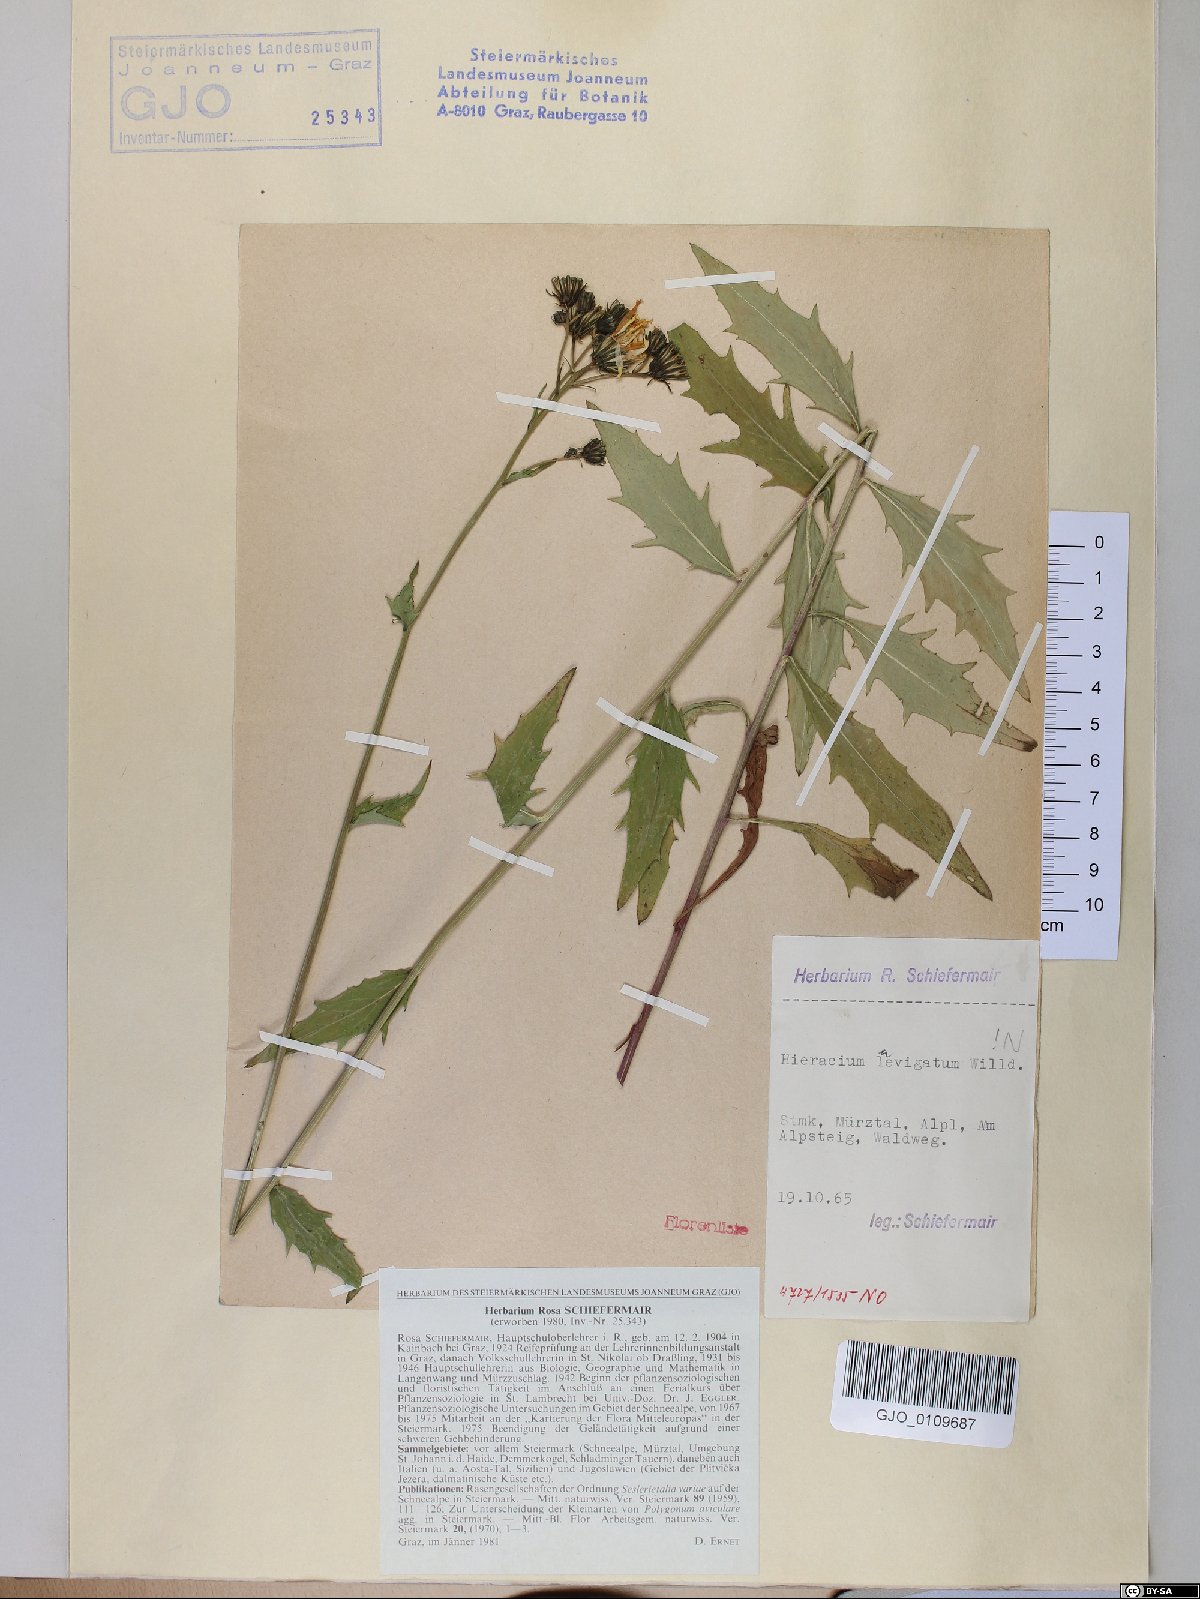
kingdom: Plantae
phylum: Tracheophyta
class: Magnoliopsida
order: Asterales
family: Asteraceae
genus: Hieracium
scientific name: Hieracium laevigatum
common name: Smooth hawkweed
